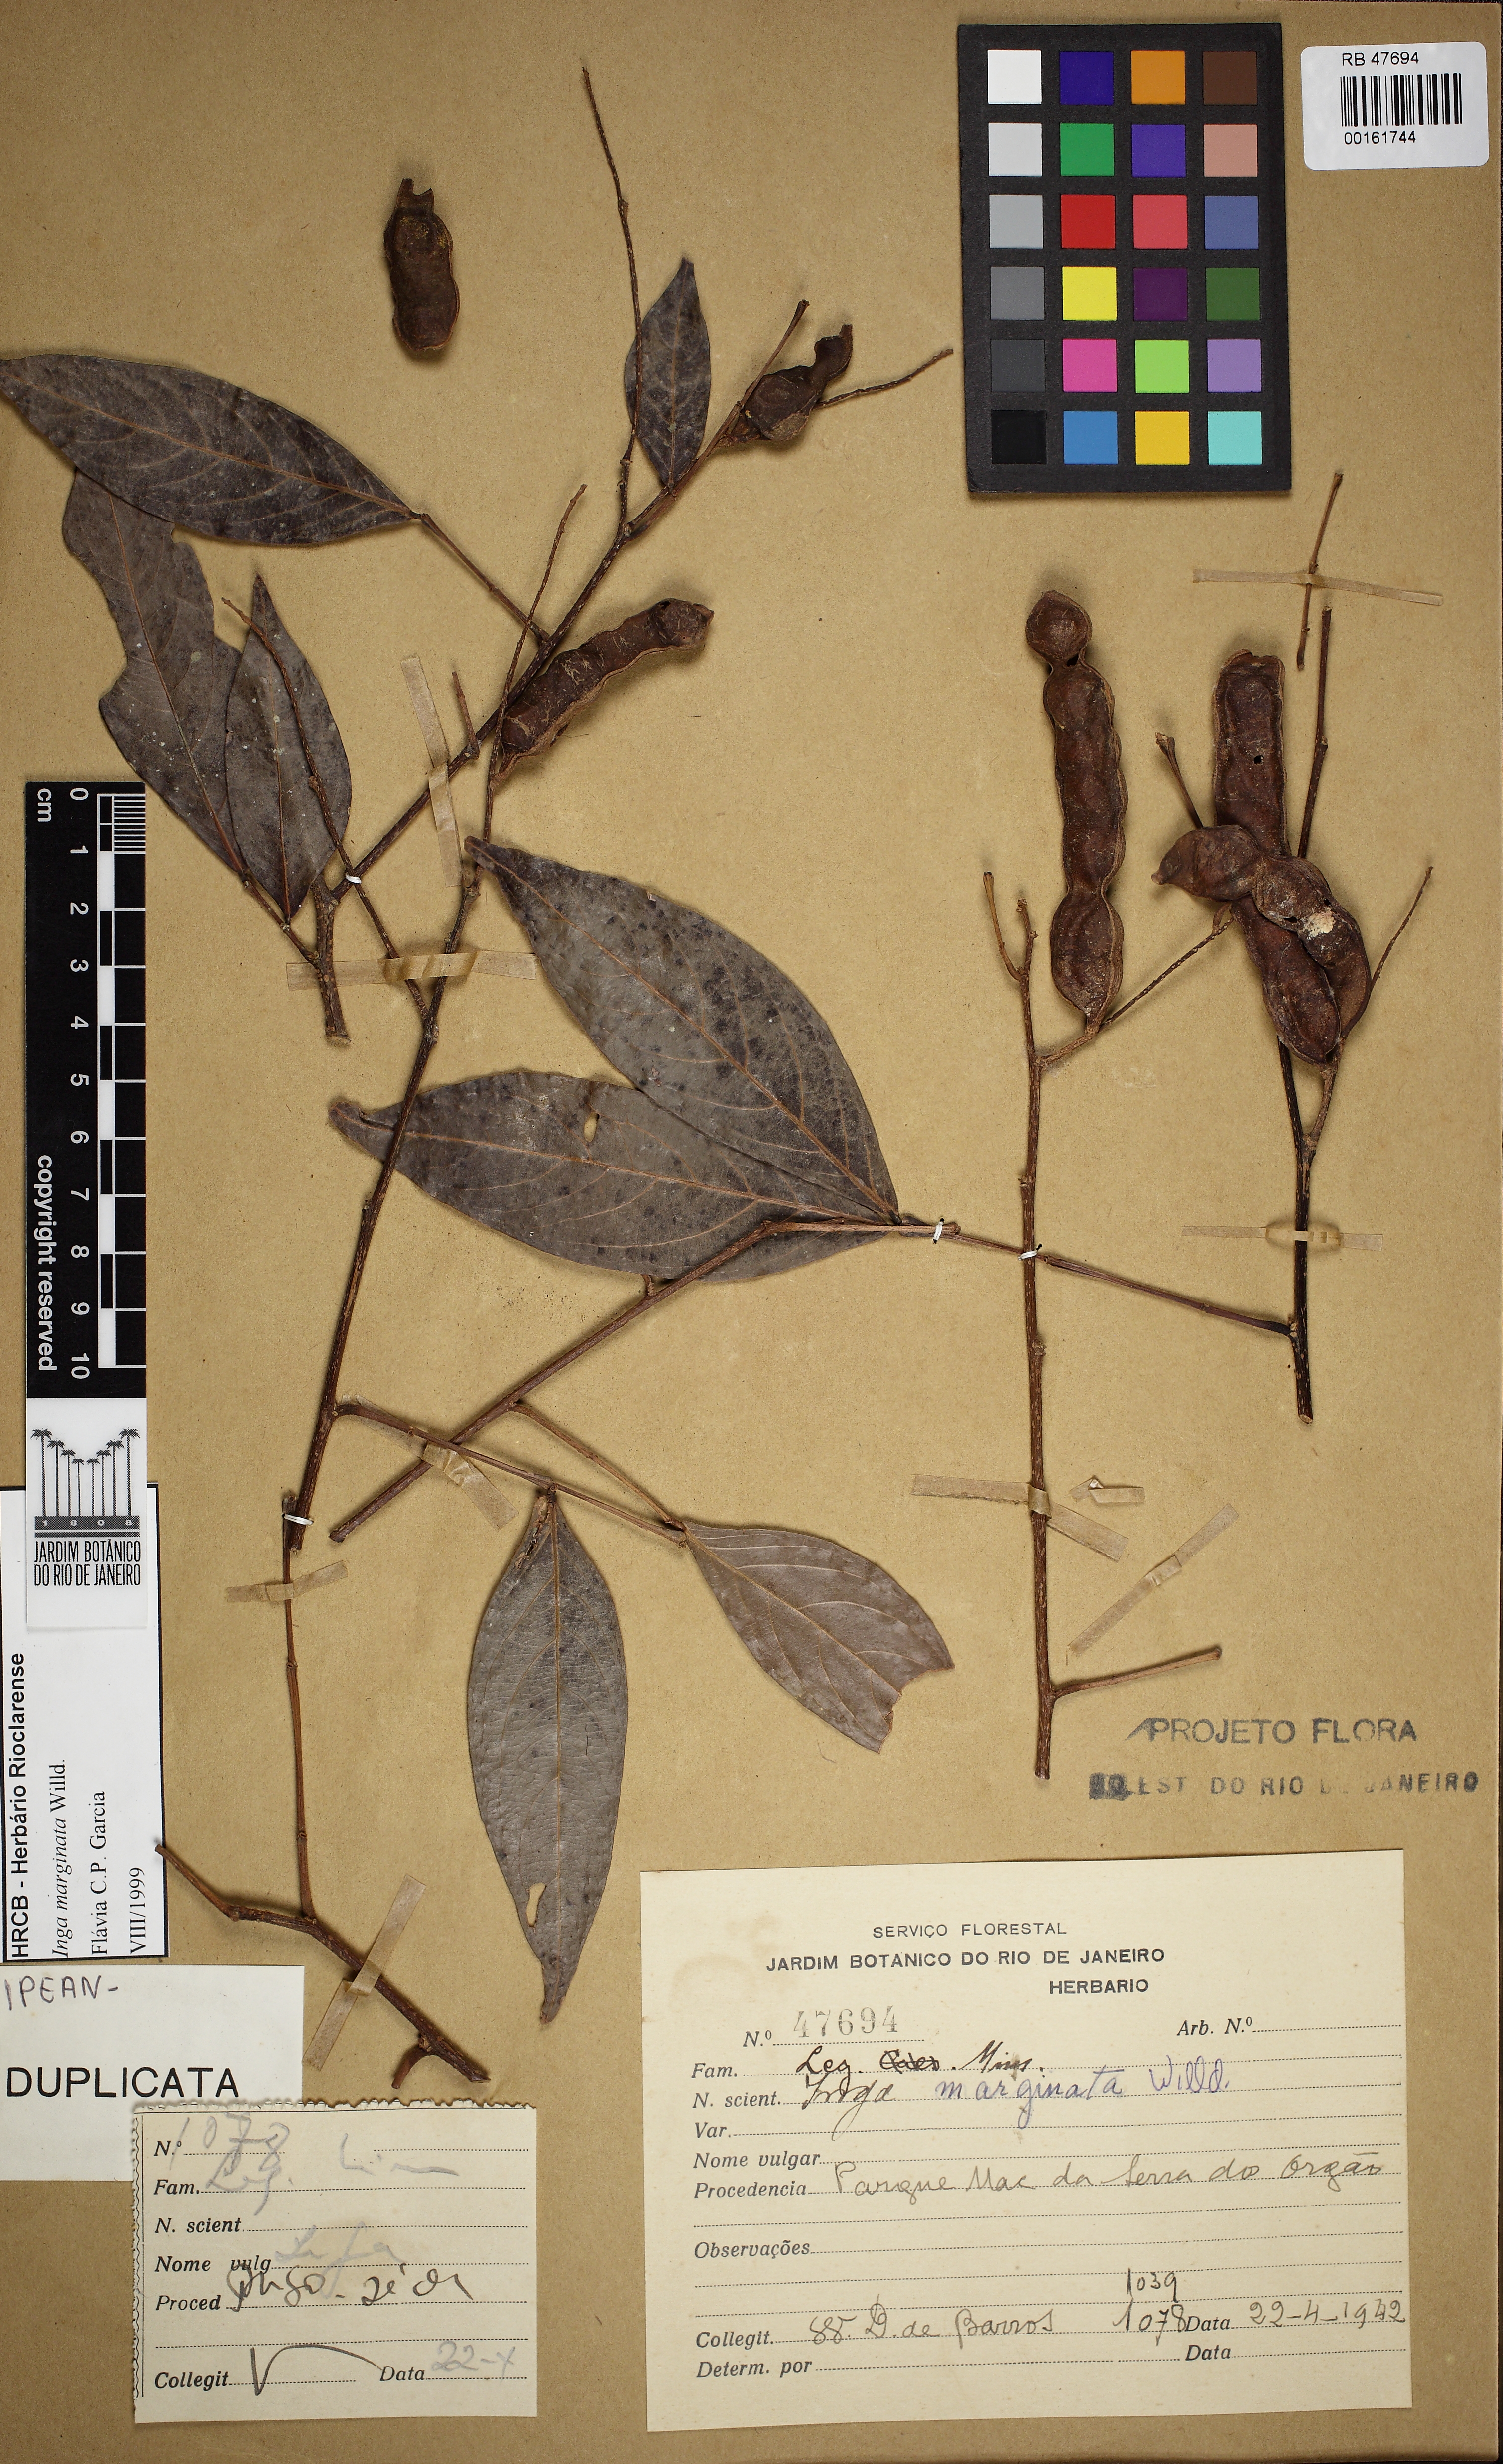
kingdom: Plantae
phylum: Tracheophyta
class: Magnoliopsida
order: Fabales
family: Fabaceae
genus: Inga
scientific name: Inga marginata
